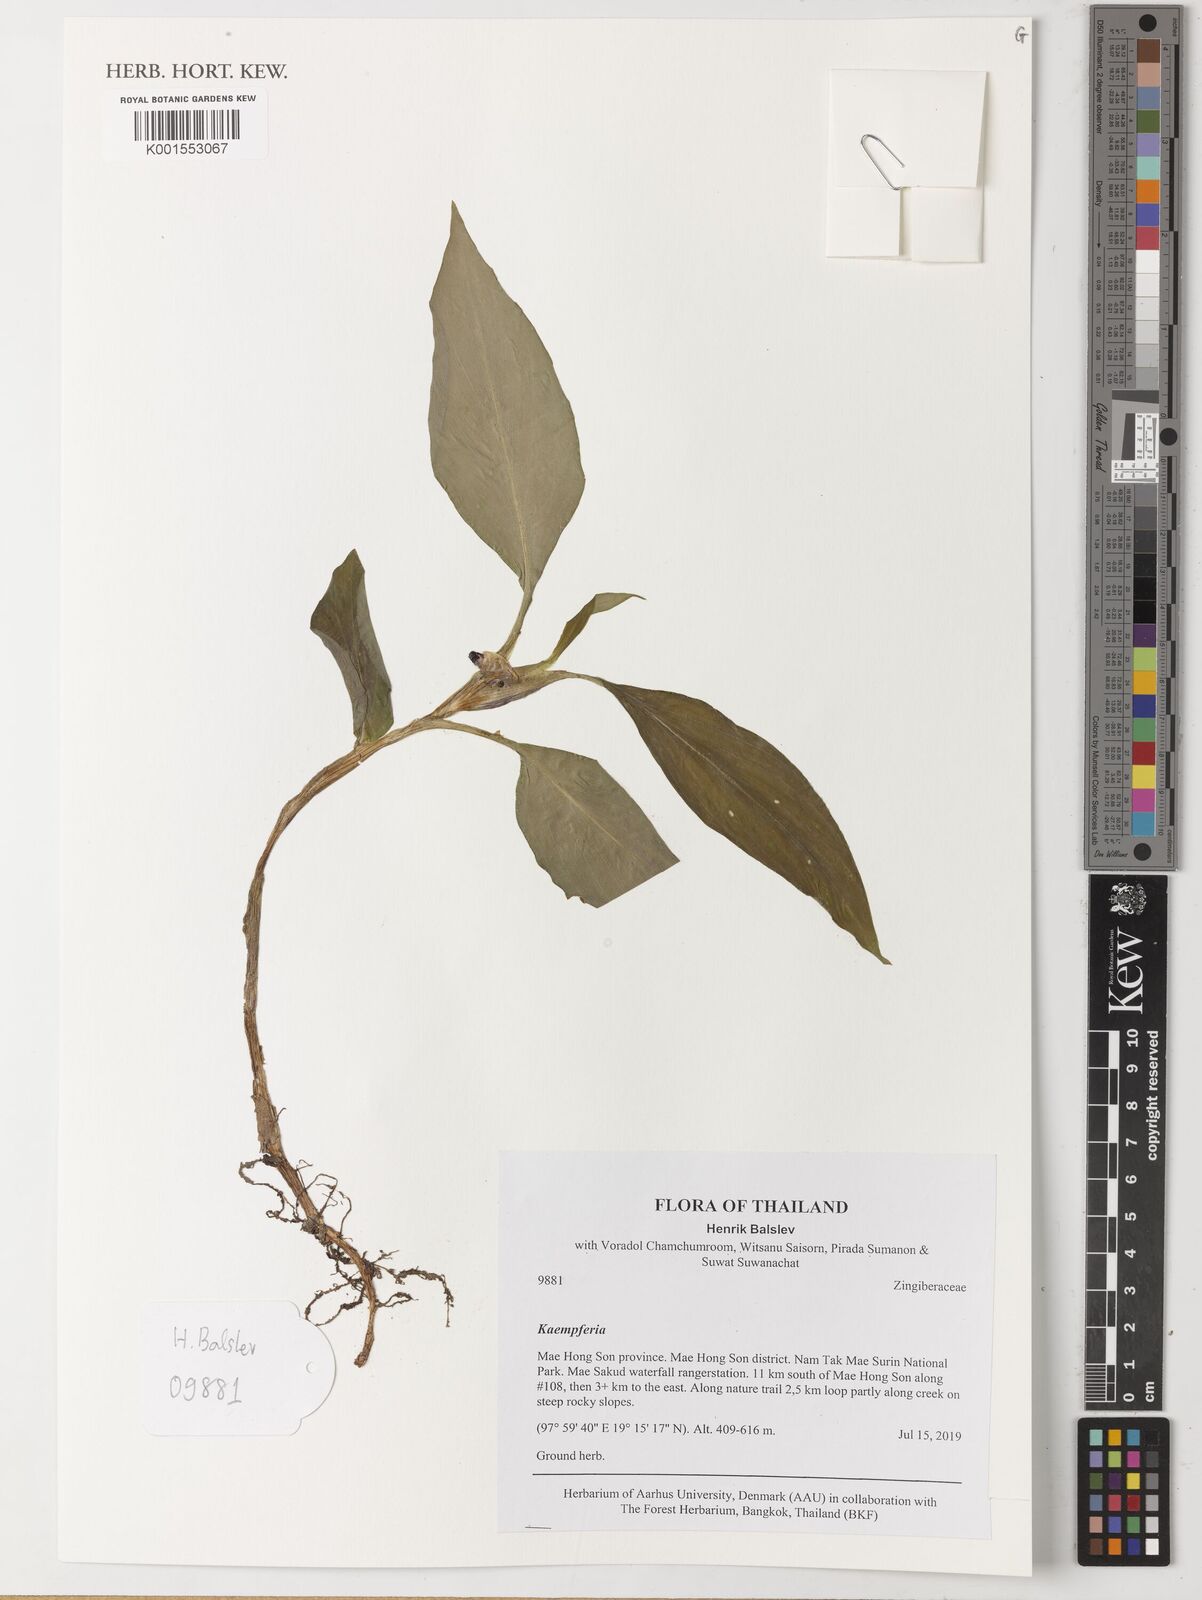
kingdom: Plantae
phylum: Tracheophyta
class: Liliopsida
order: Zingiberales
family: Zingiberaceae
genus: Kaempferia
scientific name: Kaempferia
